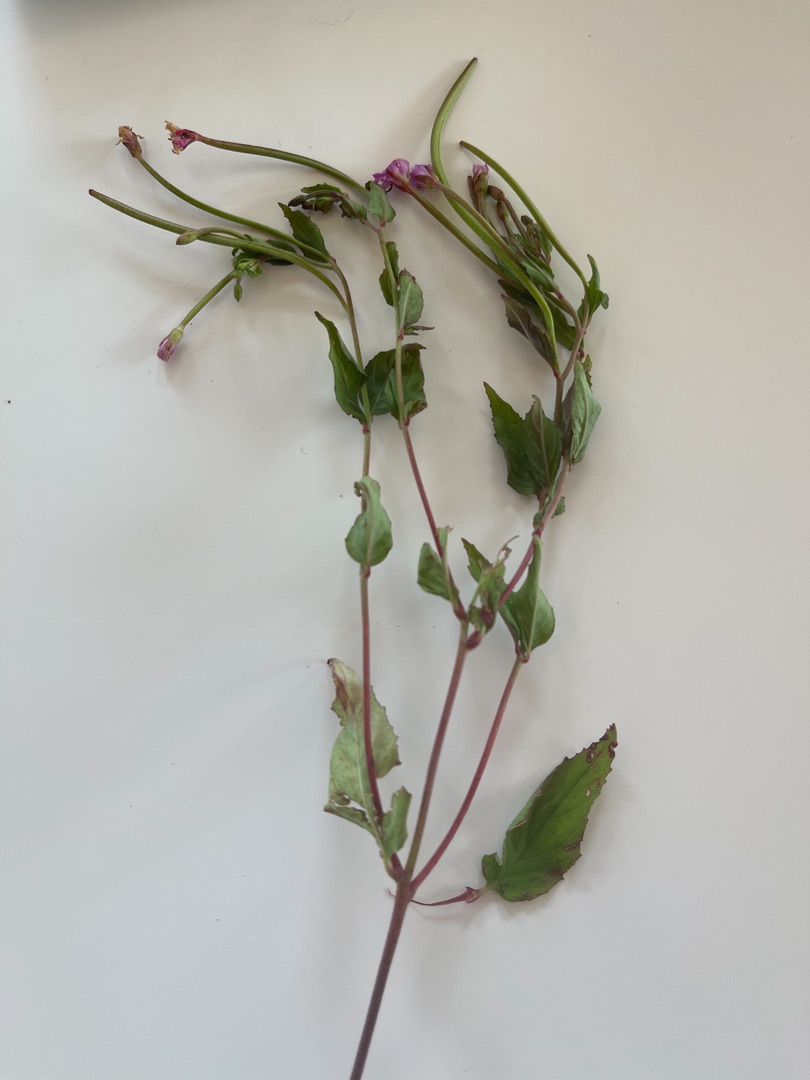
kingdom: Plantae
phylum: Tracheophyta
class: Magnoliopsida
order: Myrtales
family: Onagraceae
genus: Epilobium
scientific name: Epilobium montanum
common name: Glat dueurt
